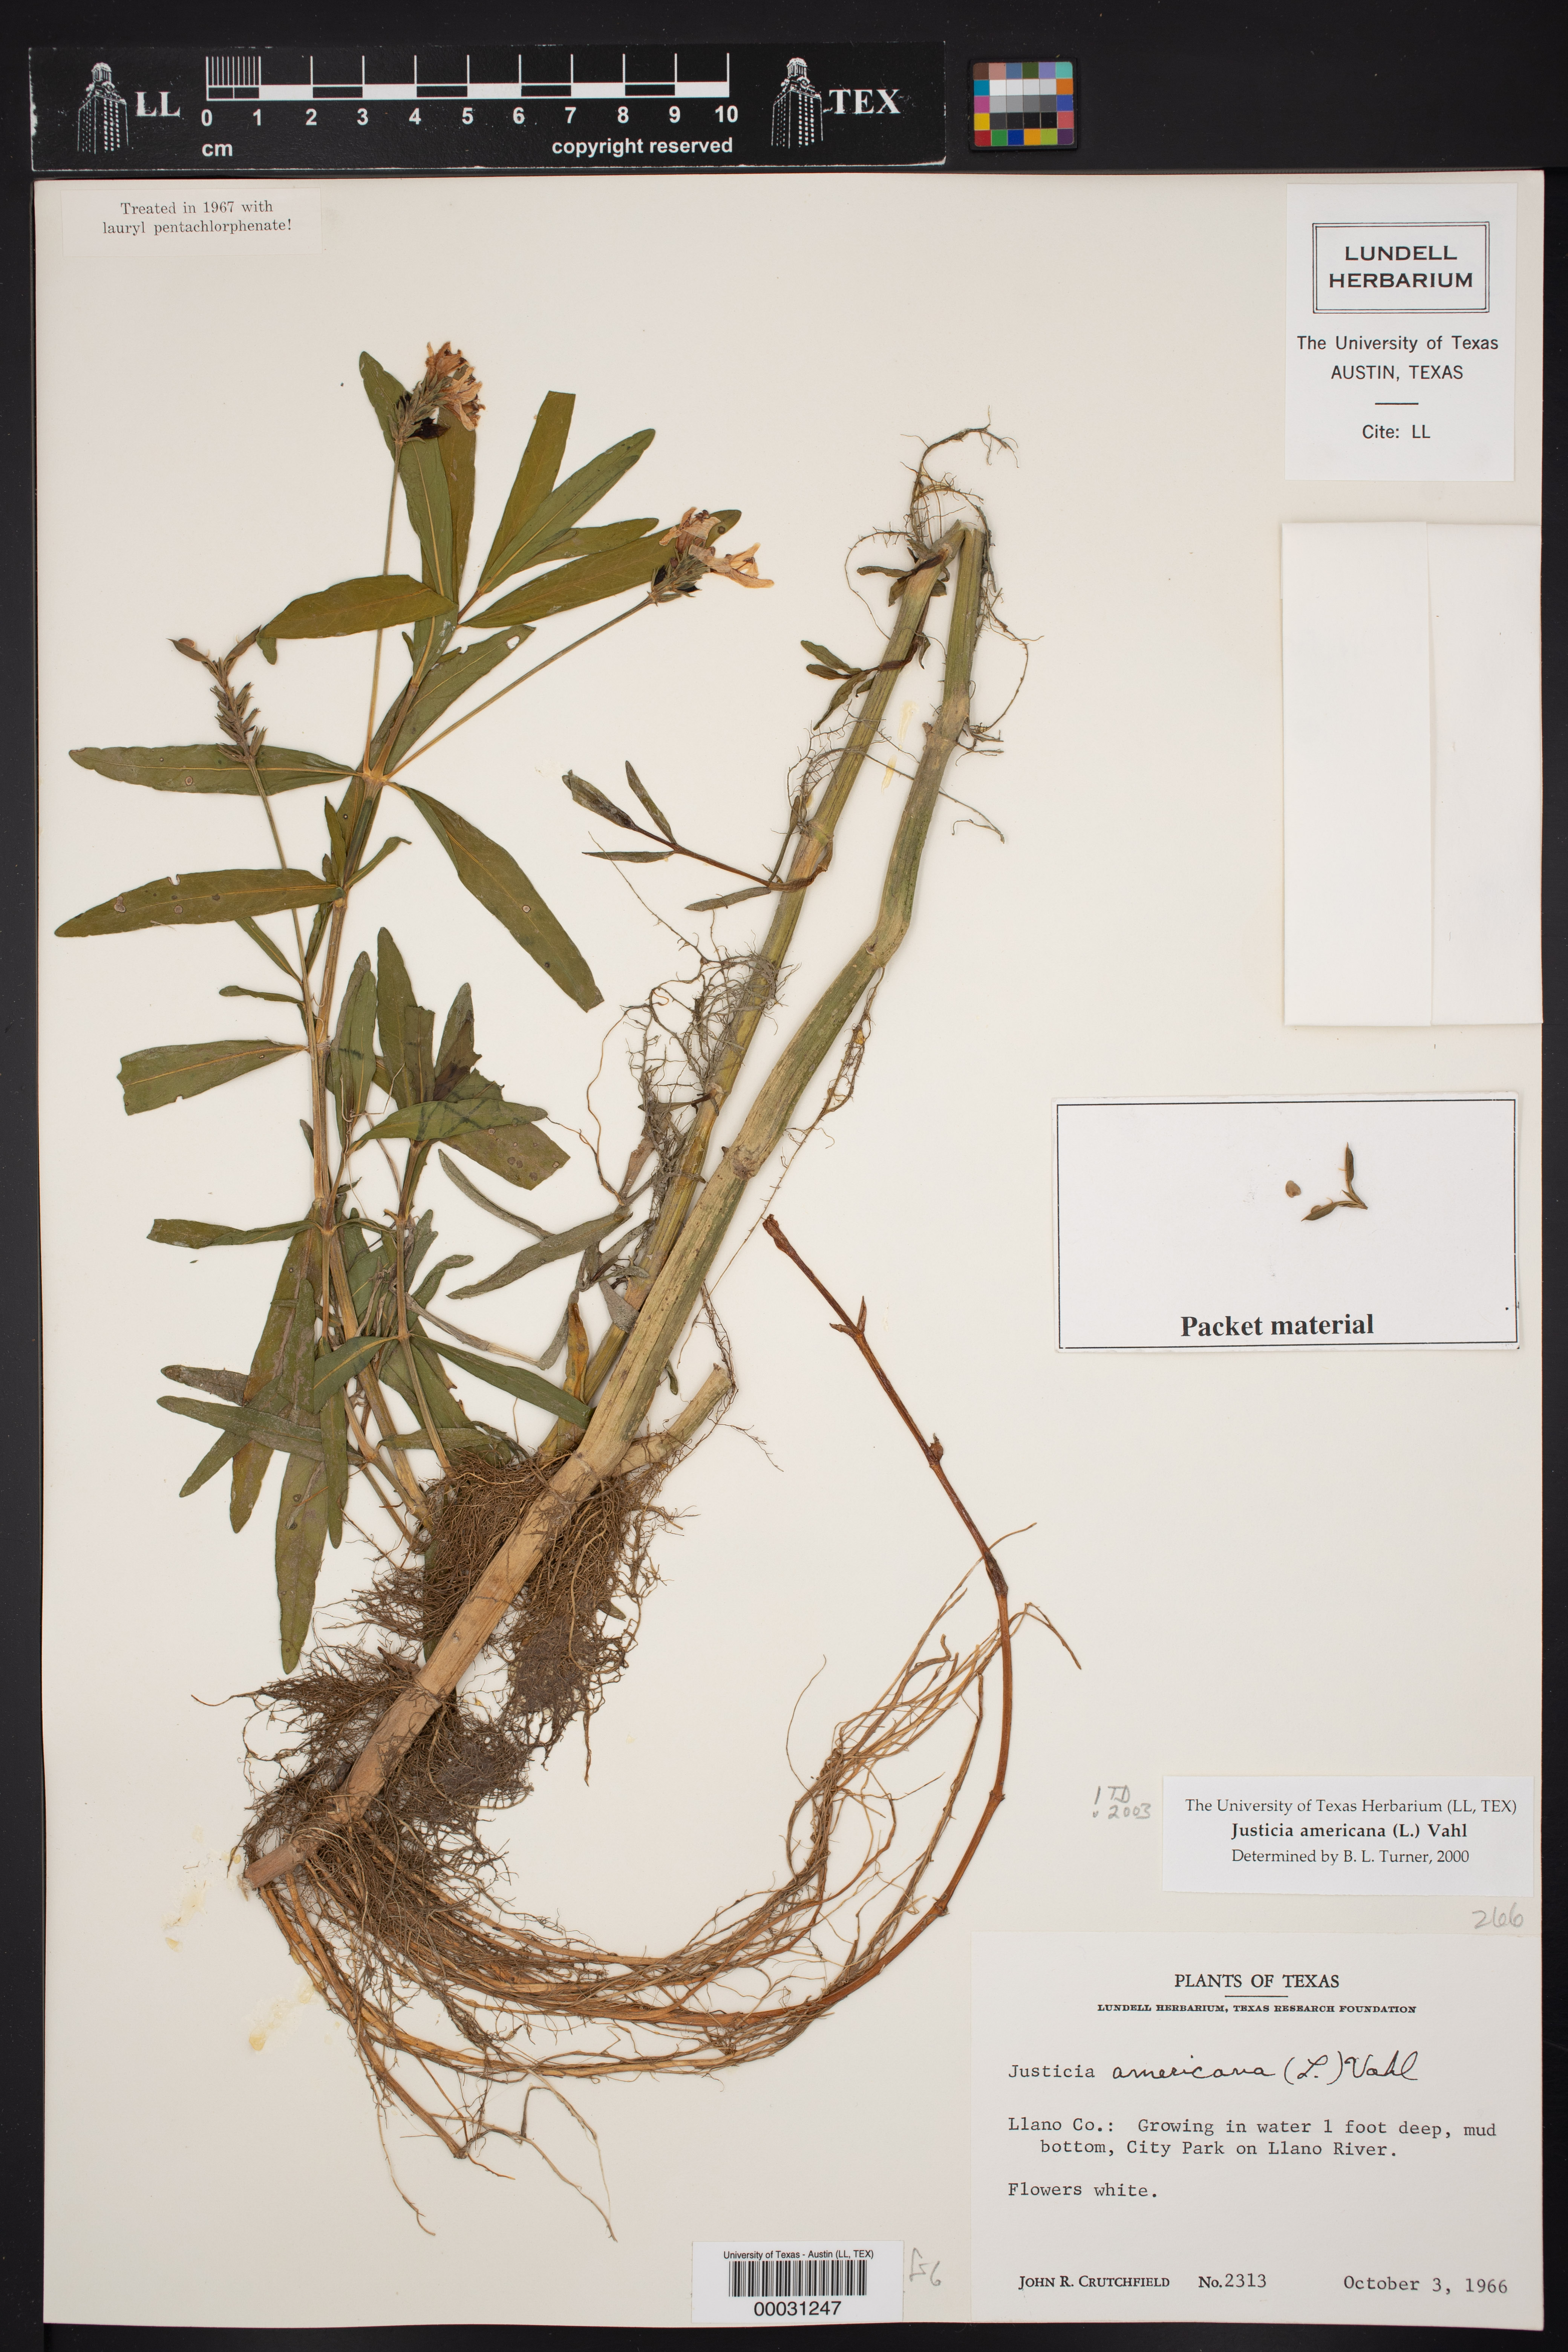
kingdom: Plantae
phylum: Tracheophyta
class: Magnoliopsida
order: Lamiales
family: Acanthaceae
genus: Dianthera
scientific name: Dianthera americana
